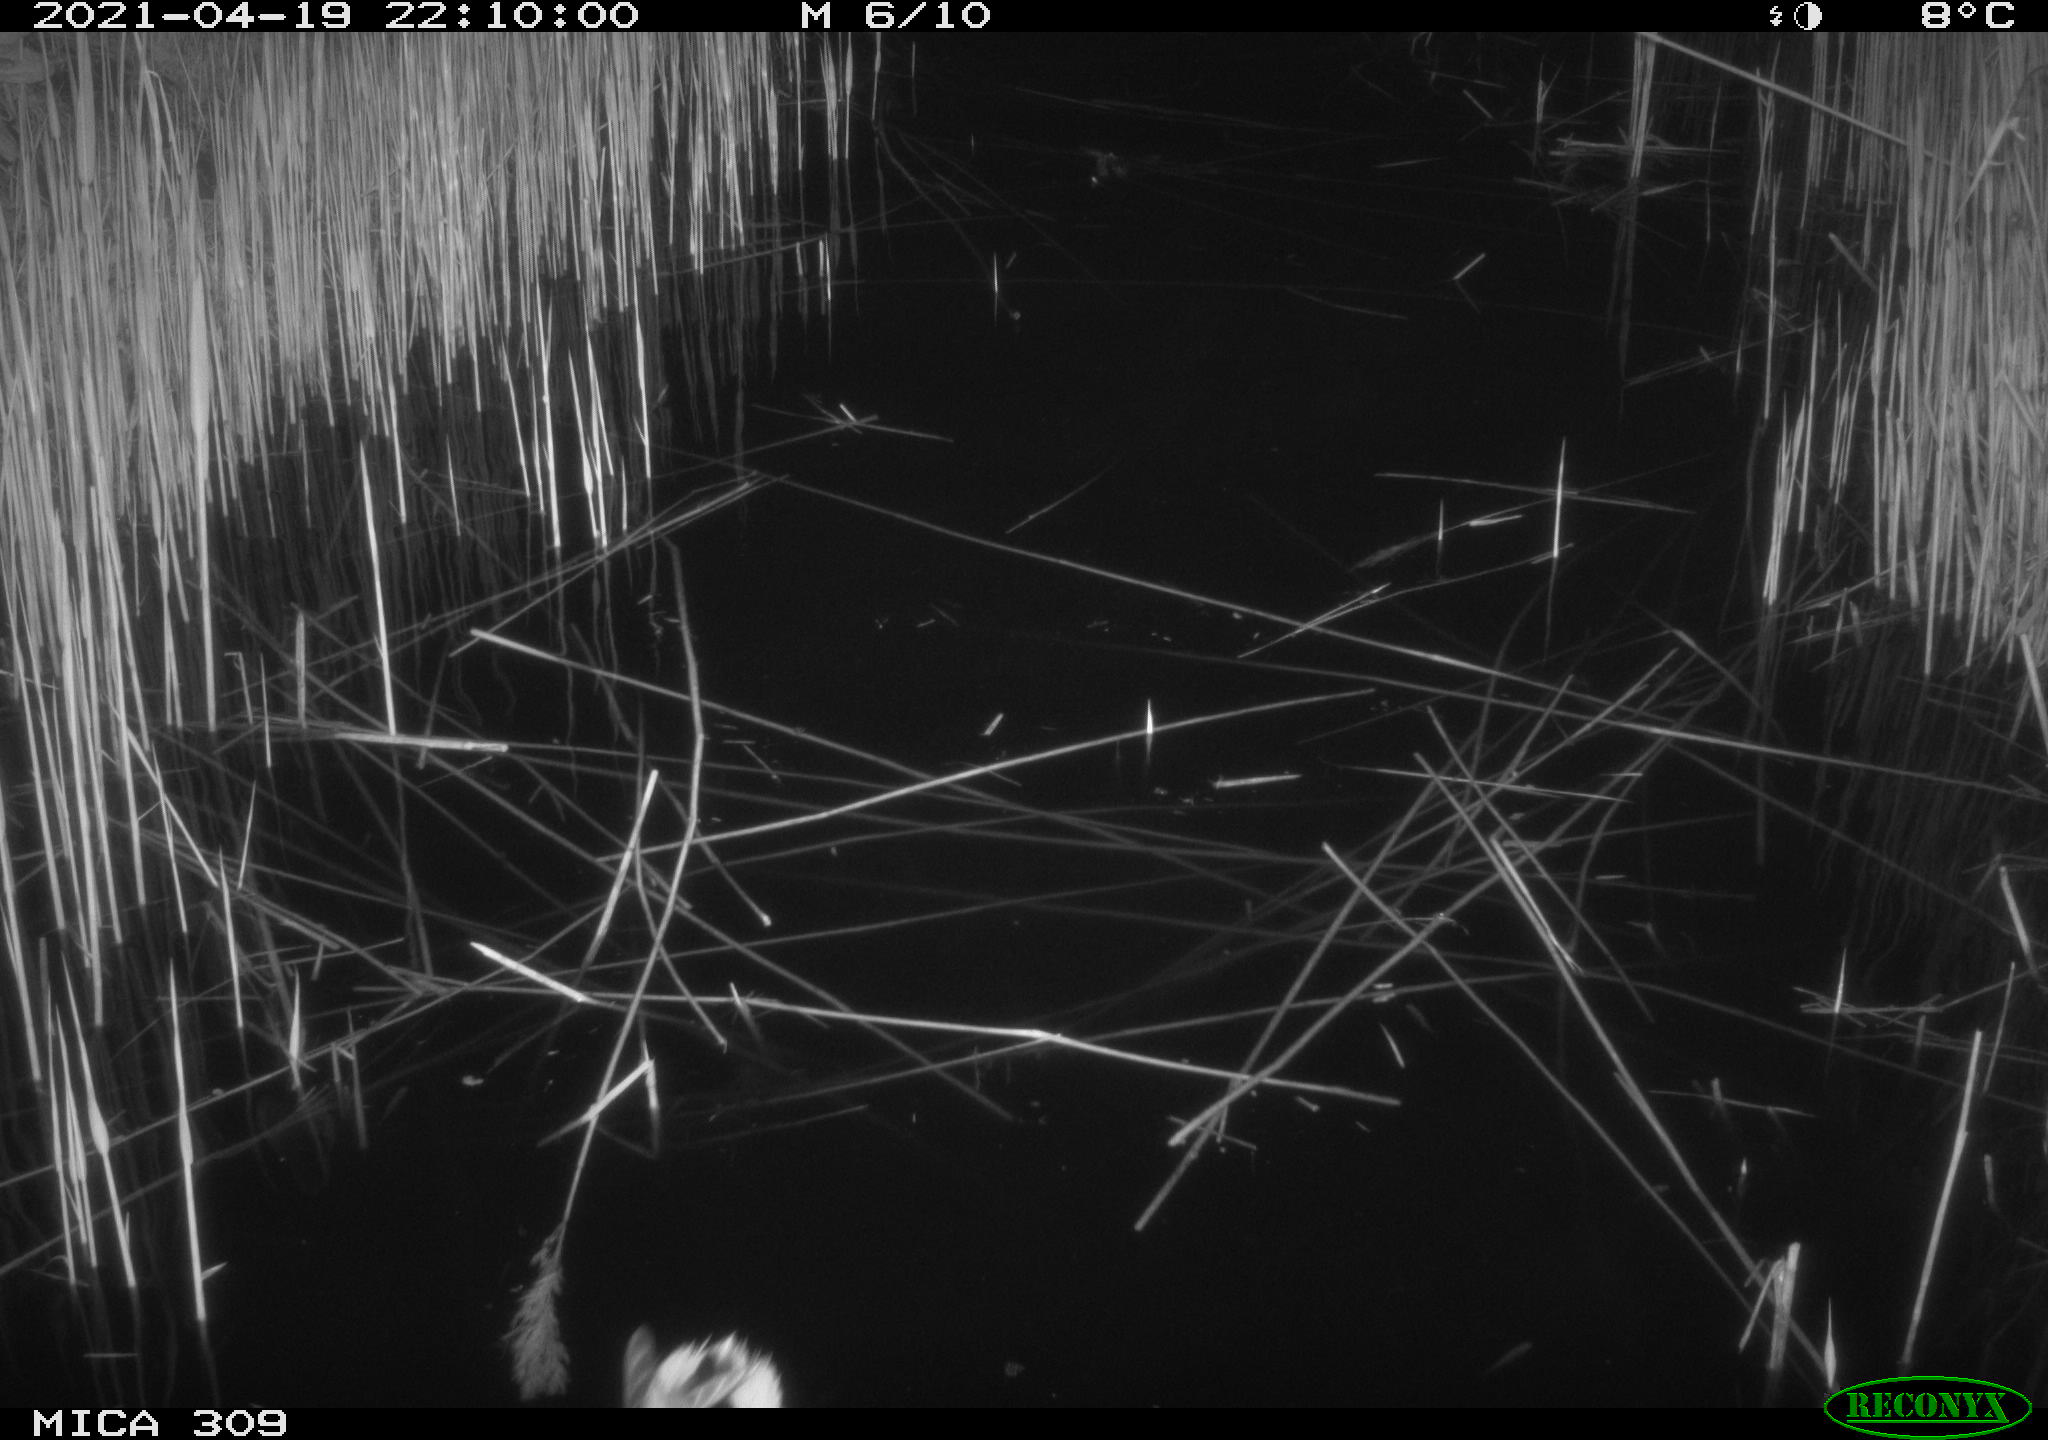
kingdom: Animalia
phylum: Chordata
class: Aves
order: Anseriformes
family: Anatidae
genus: Anas
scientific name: Anas platyrhynchos
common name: Mallard
